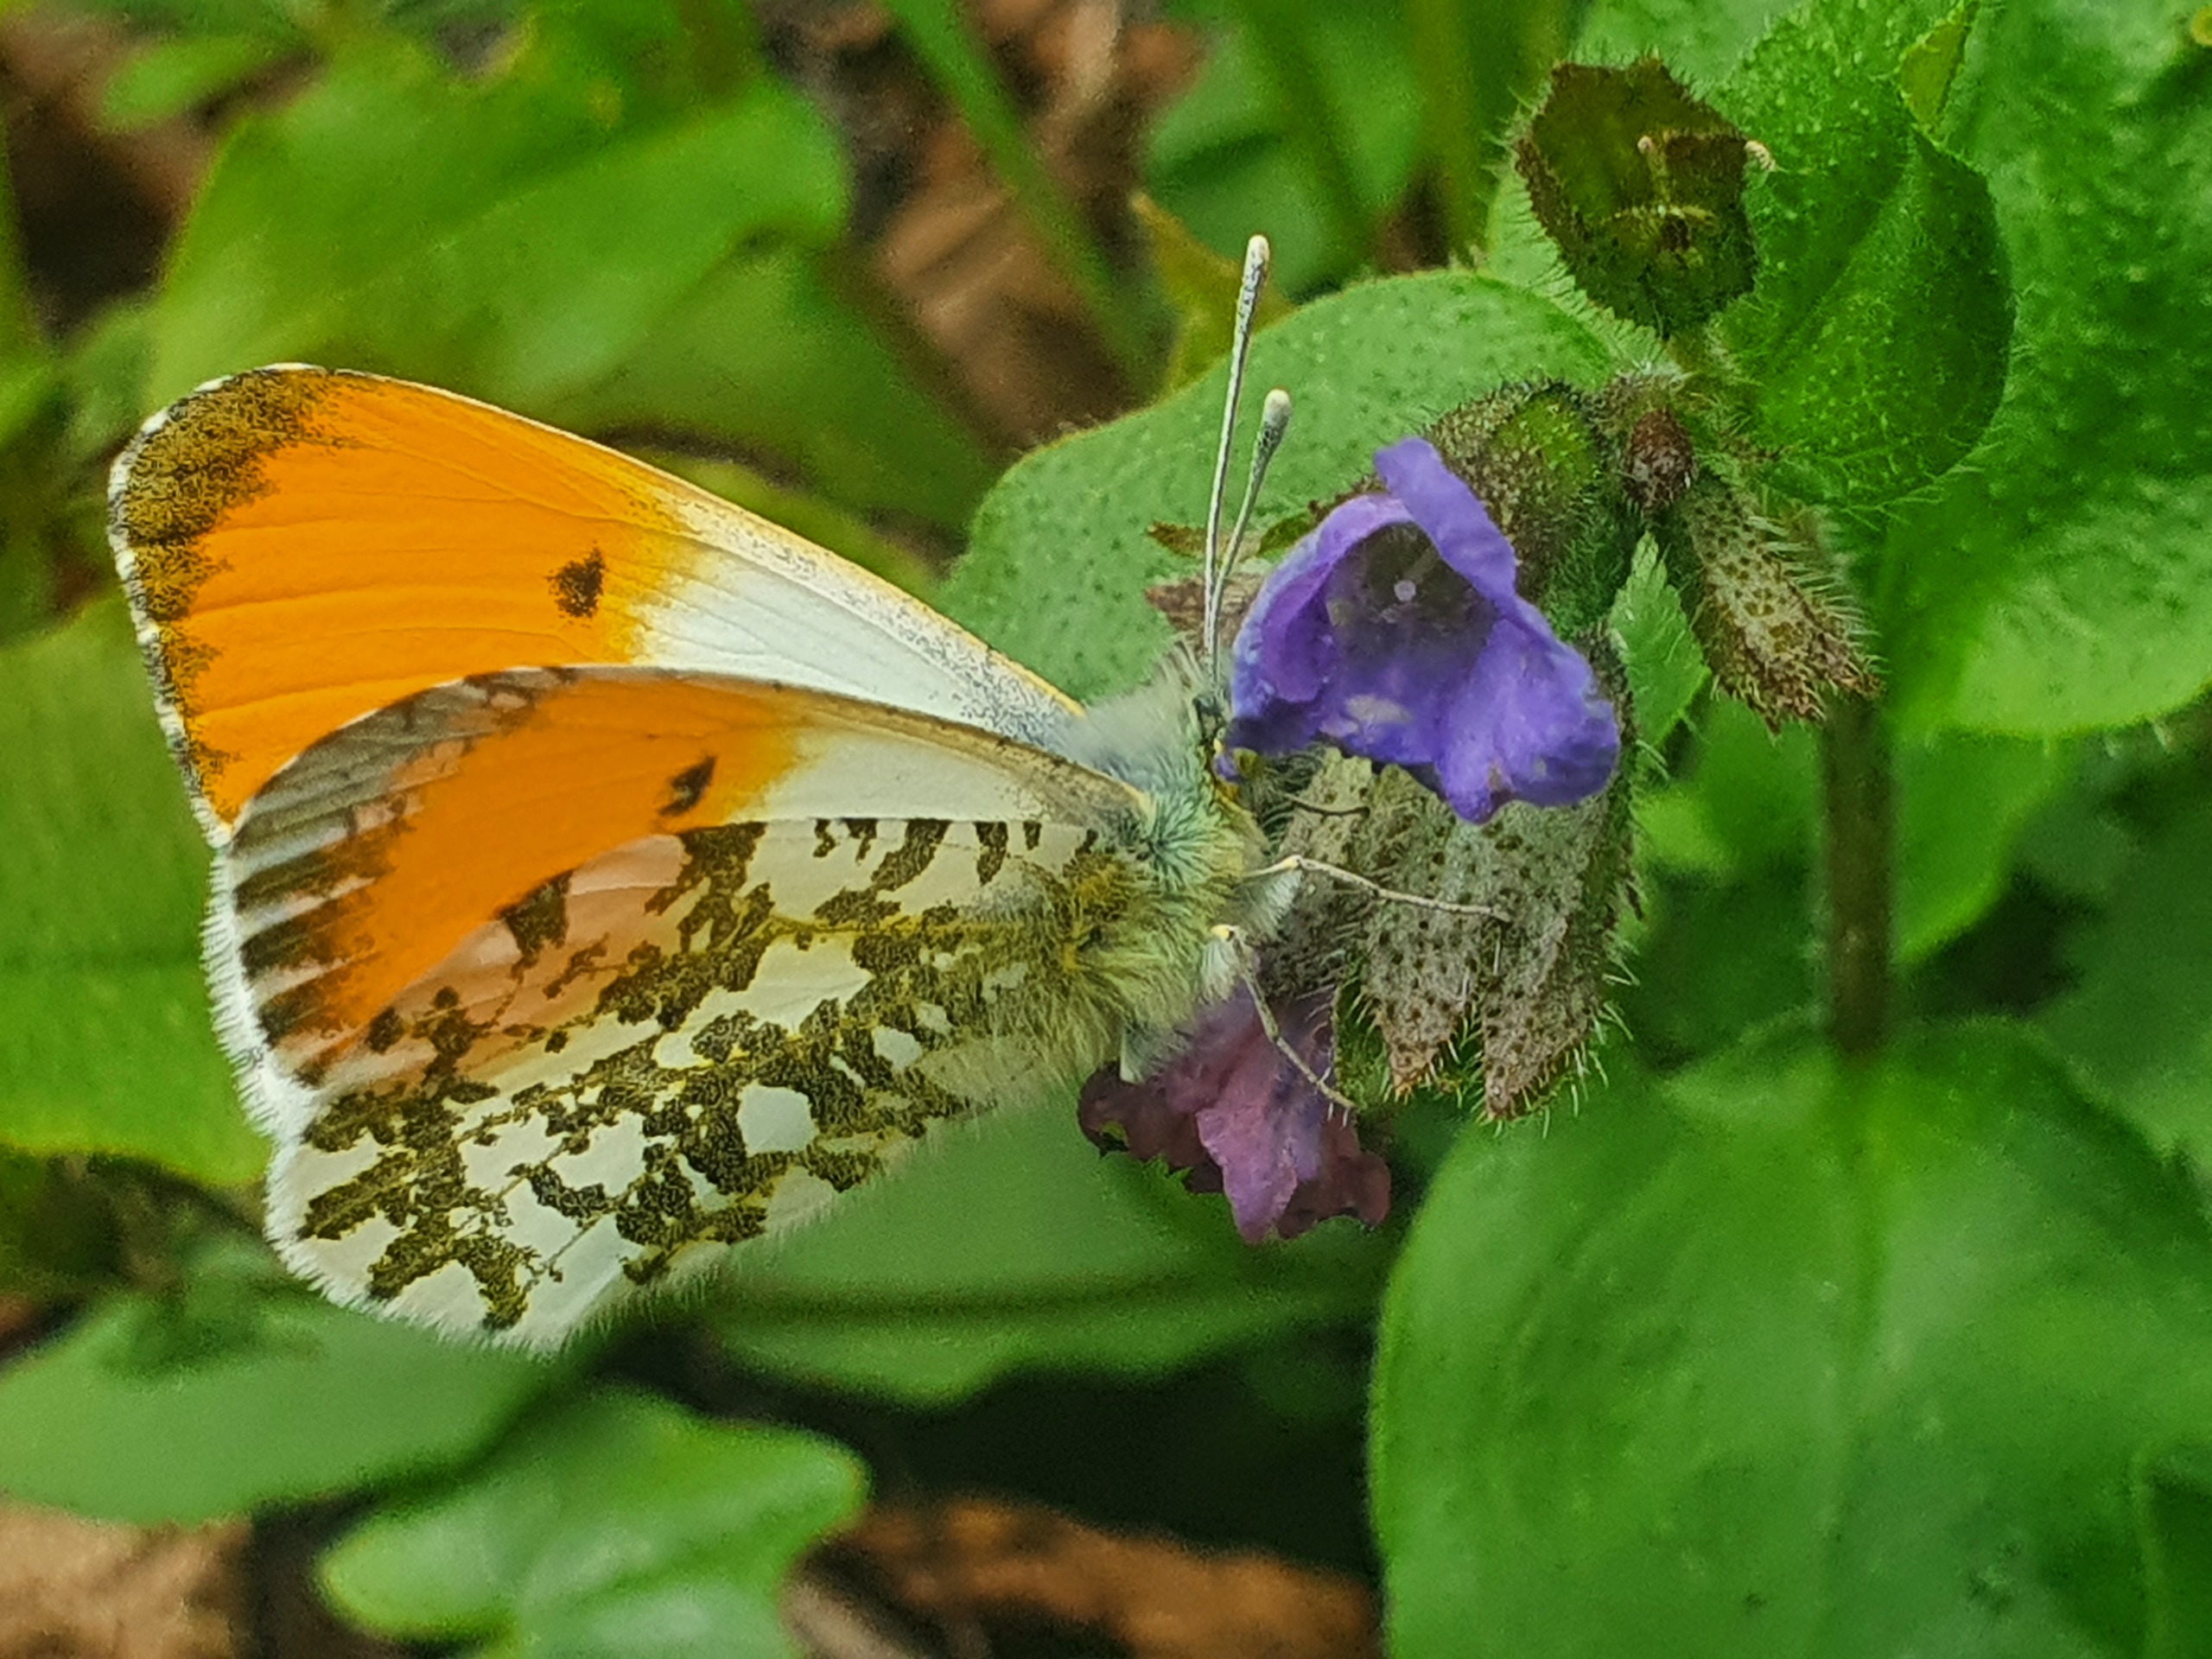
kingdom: Animalia
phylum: Arthropoda
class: Insecta
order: Lepidoptera
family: Pieridae
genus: Anthocharis
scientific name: Anthocharis cardamines
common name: Aurora
